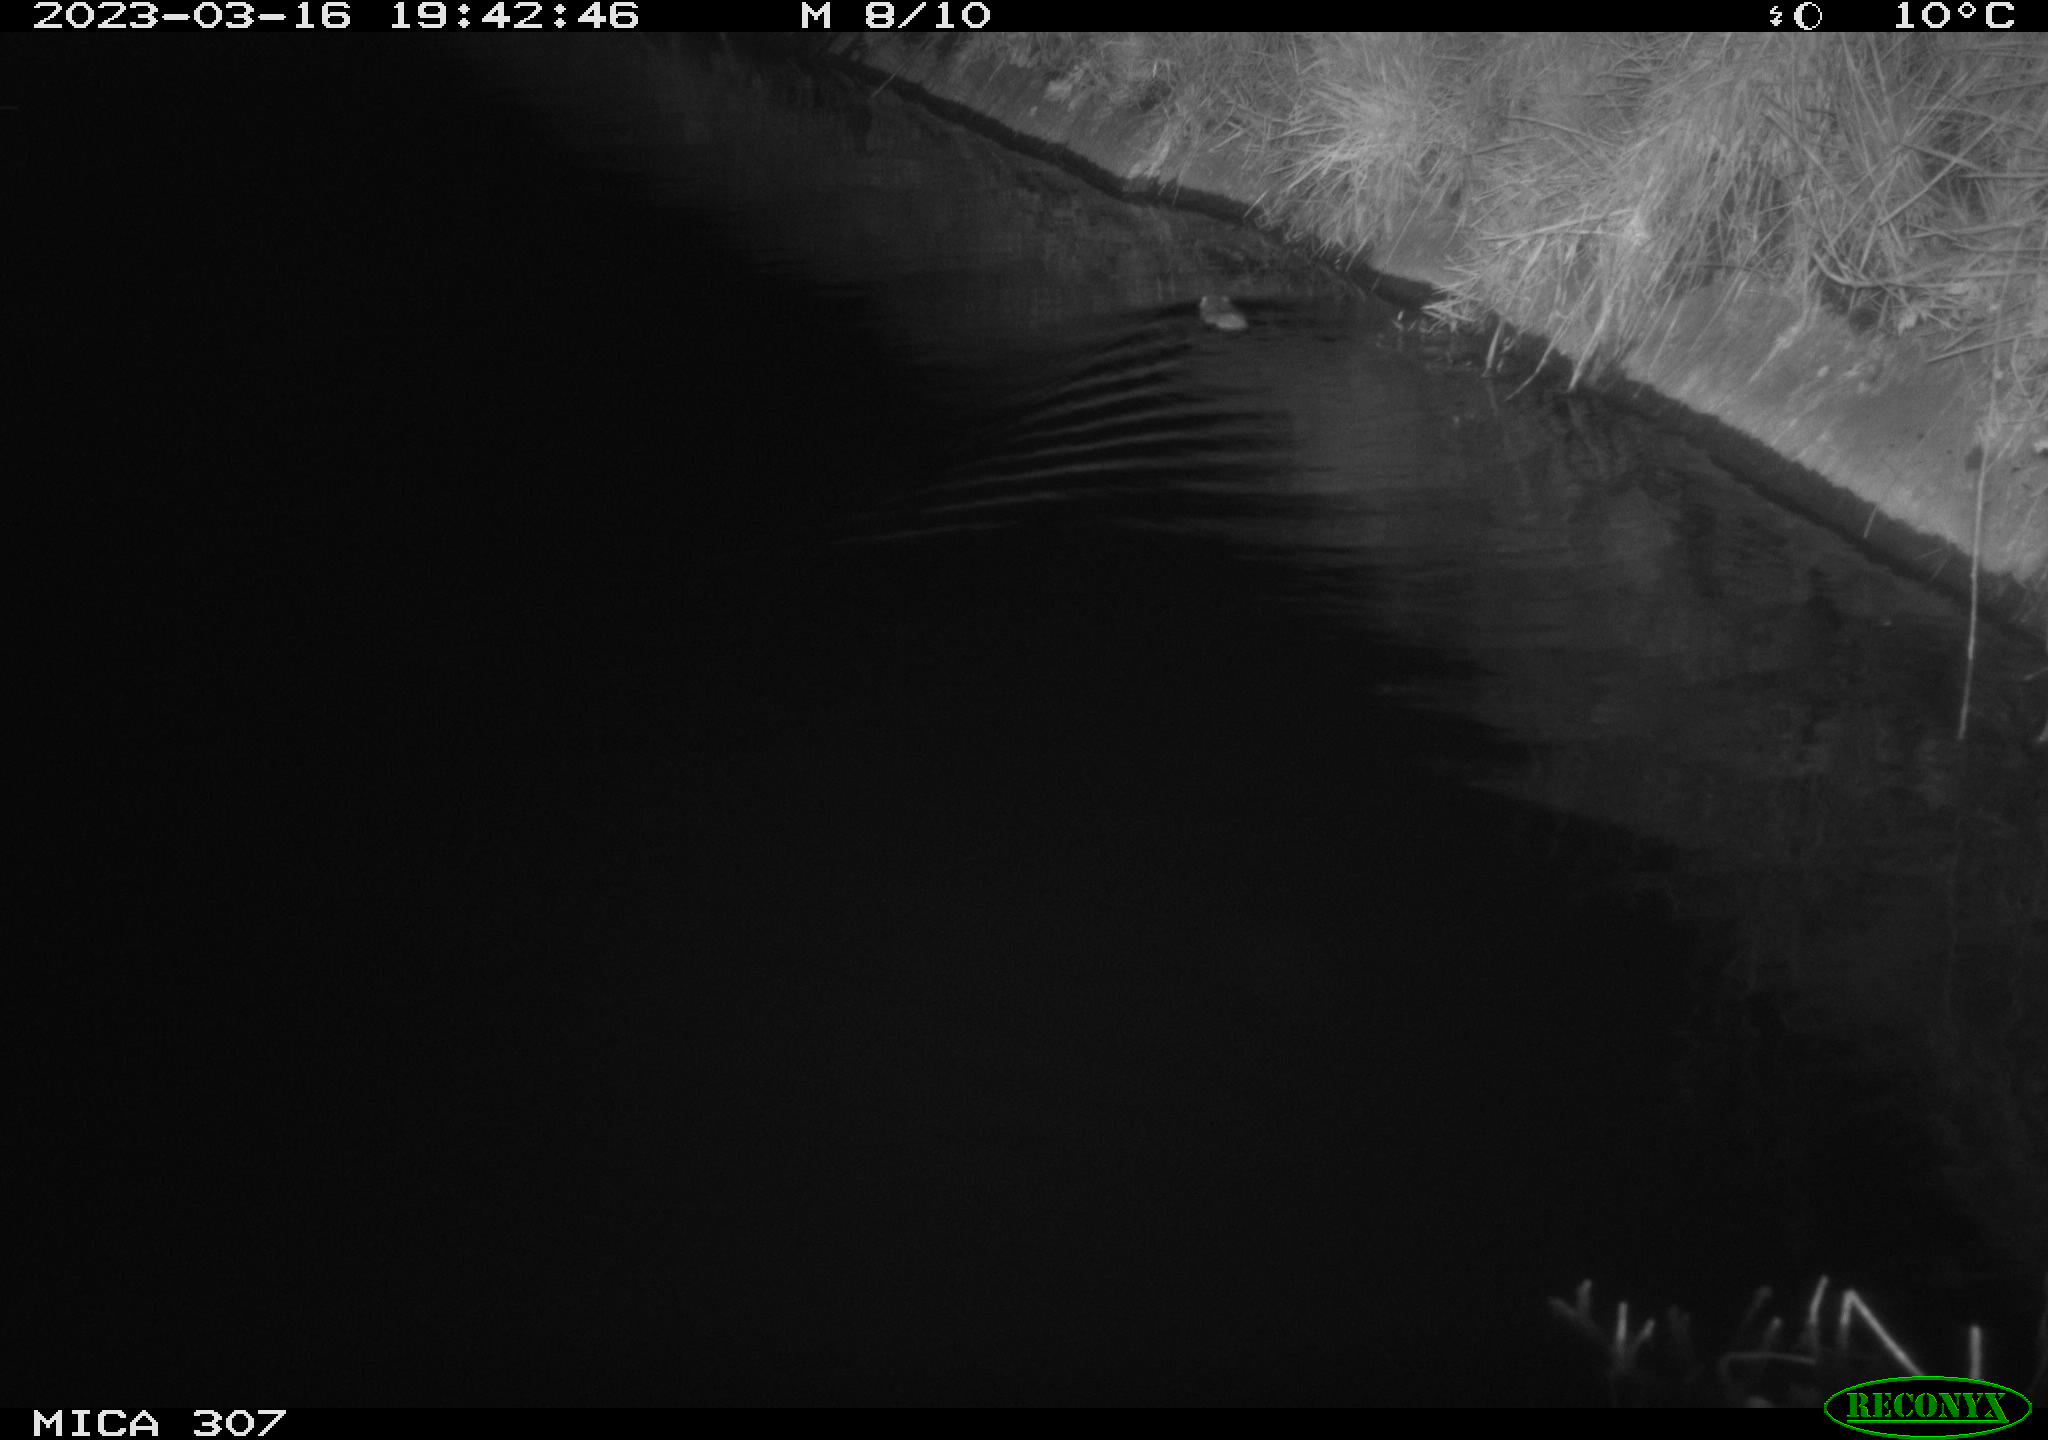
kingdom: Animalia
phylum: Chordata
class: Mammalia
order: Rodentia
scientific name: Rodentia
